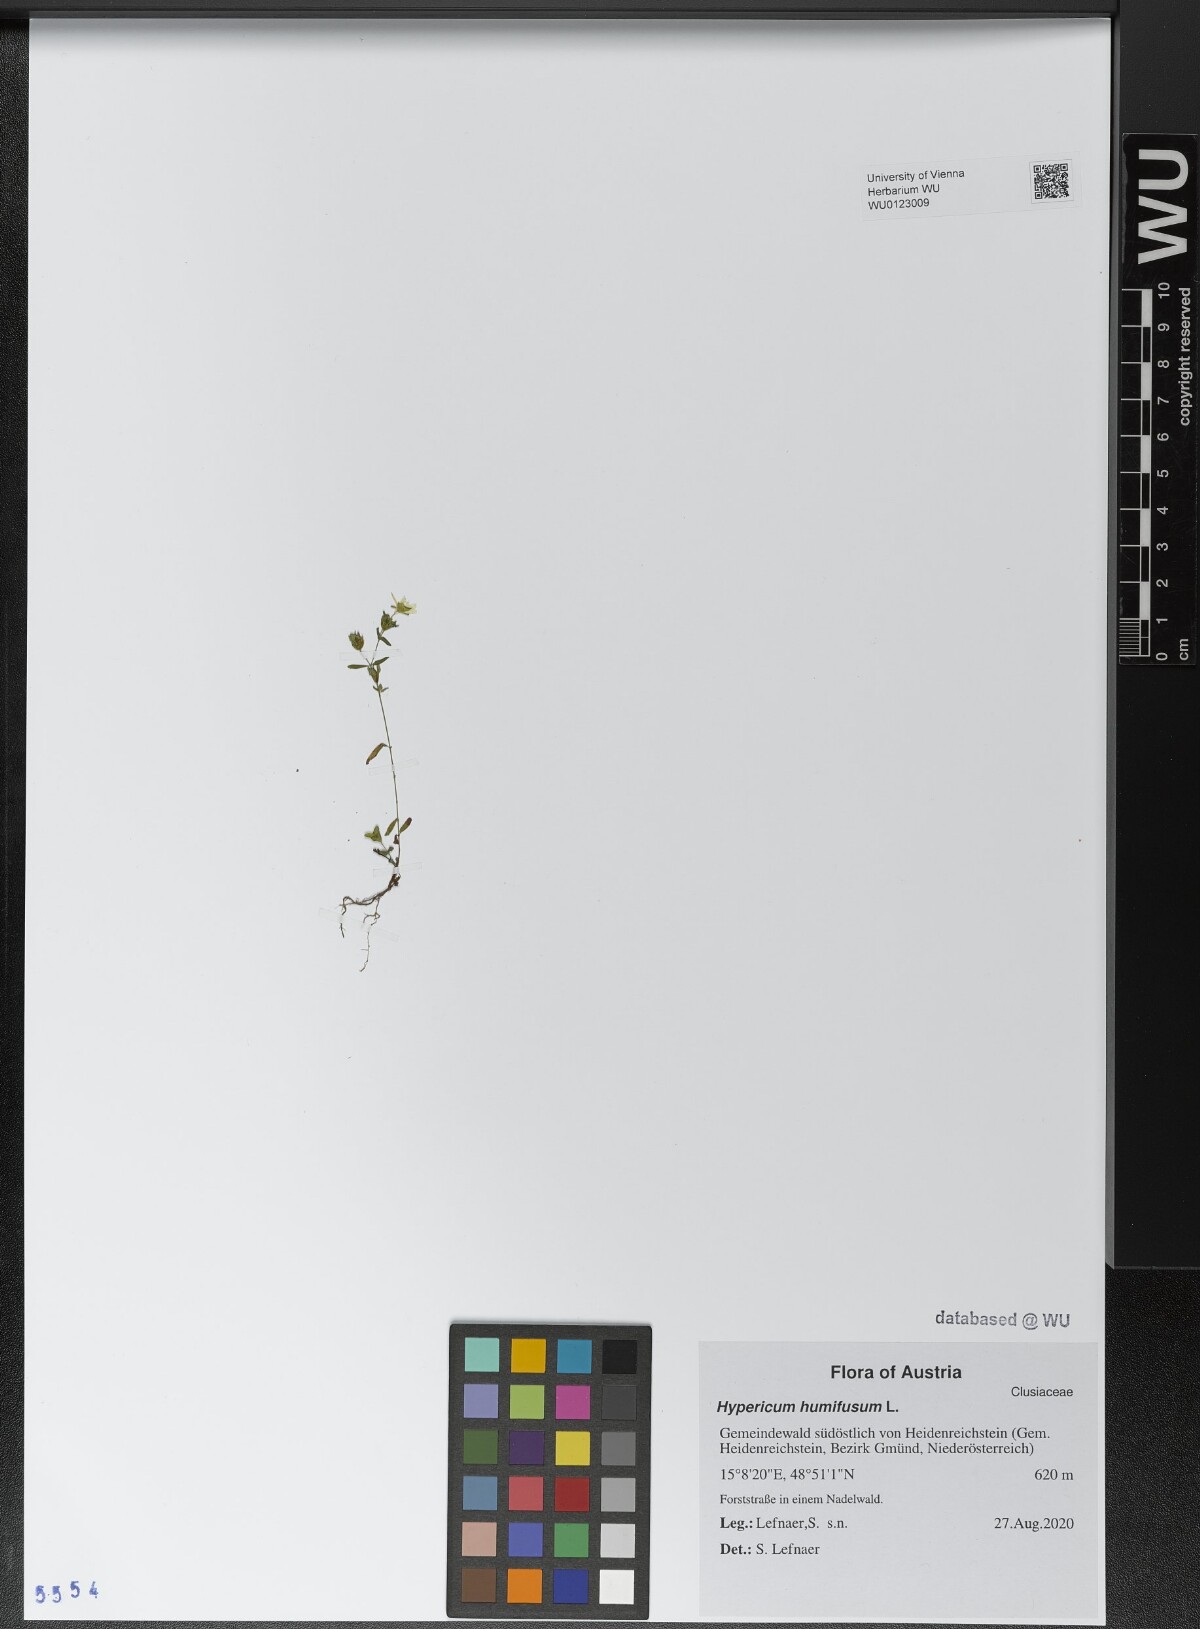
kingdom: Plantae
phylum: Tracheophyta
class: Magnoliopsida
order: Malpighiales
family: Hypericaceae
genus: Hypericum
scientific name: Hypericum humifusum
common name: Trailing st. john's-wort
